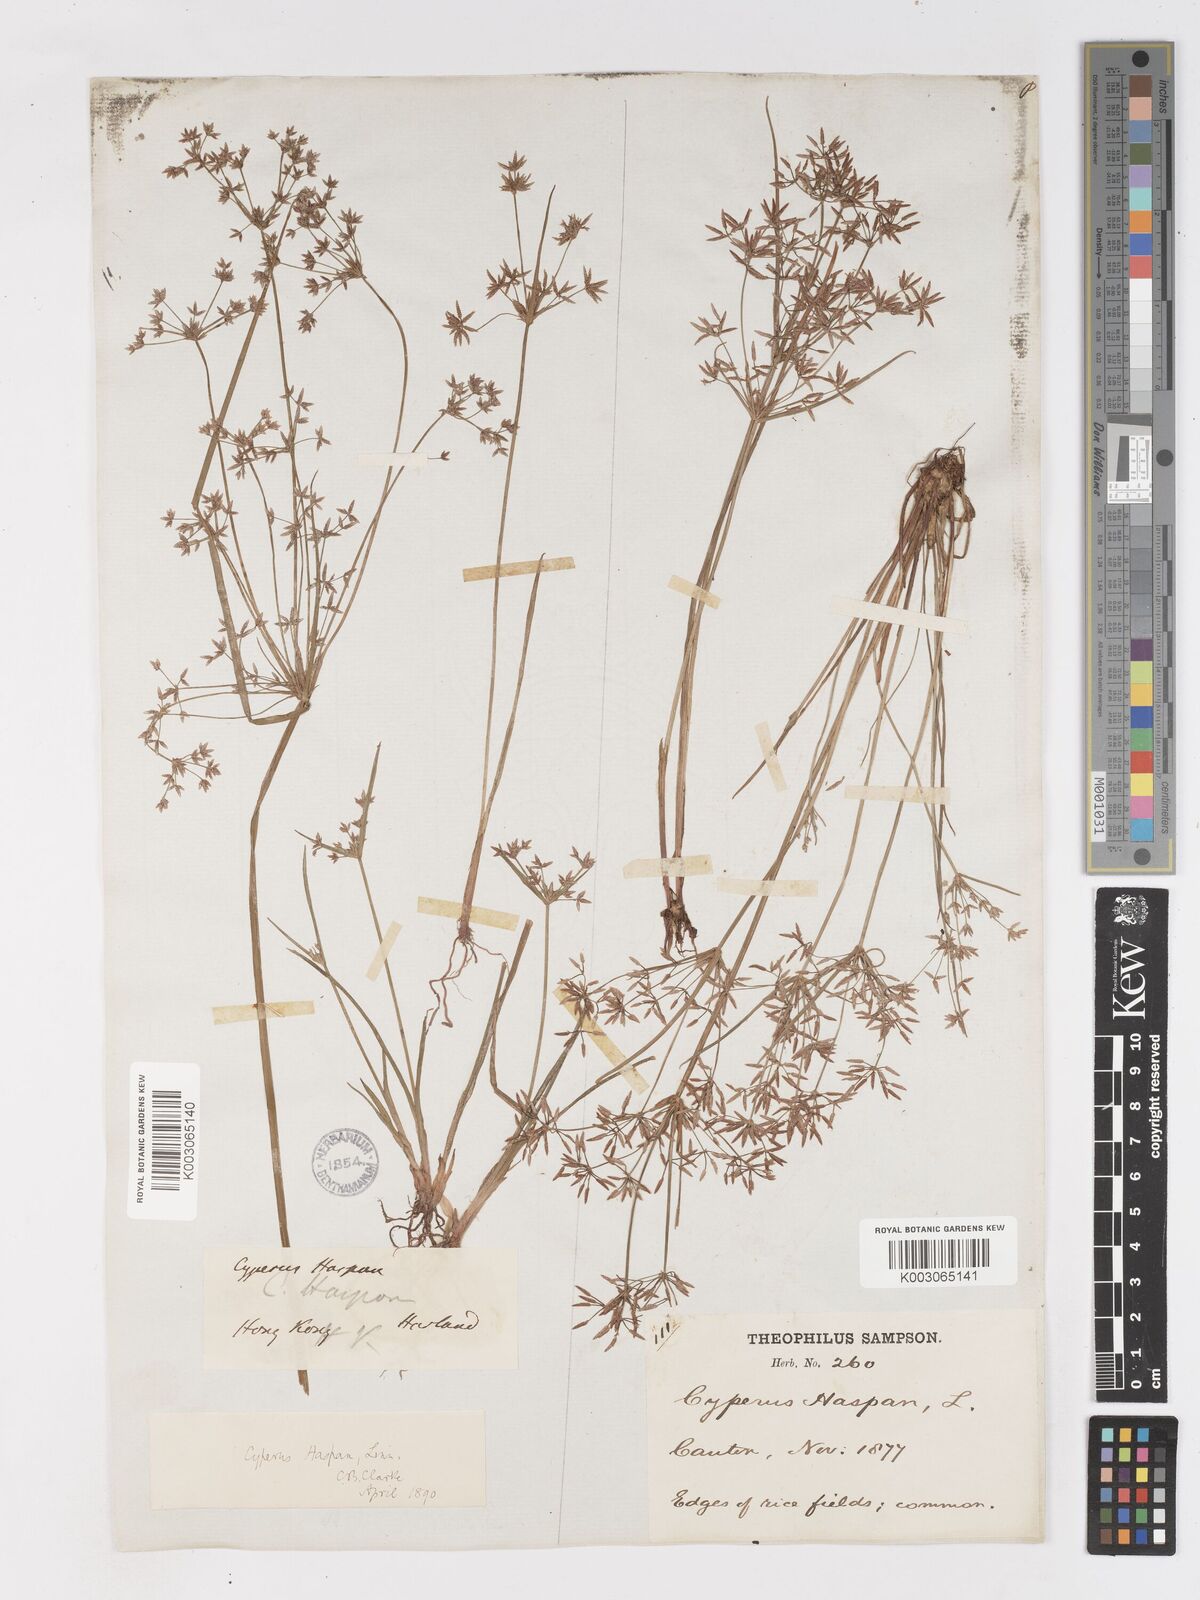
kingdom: Plantae
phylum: Tracheophyta
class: Liliopsida
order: Poales
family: Cyperaceae
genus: Cyperus
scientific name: Cyperus haspan
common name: Haspan flatsedge
